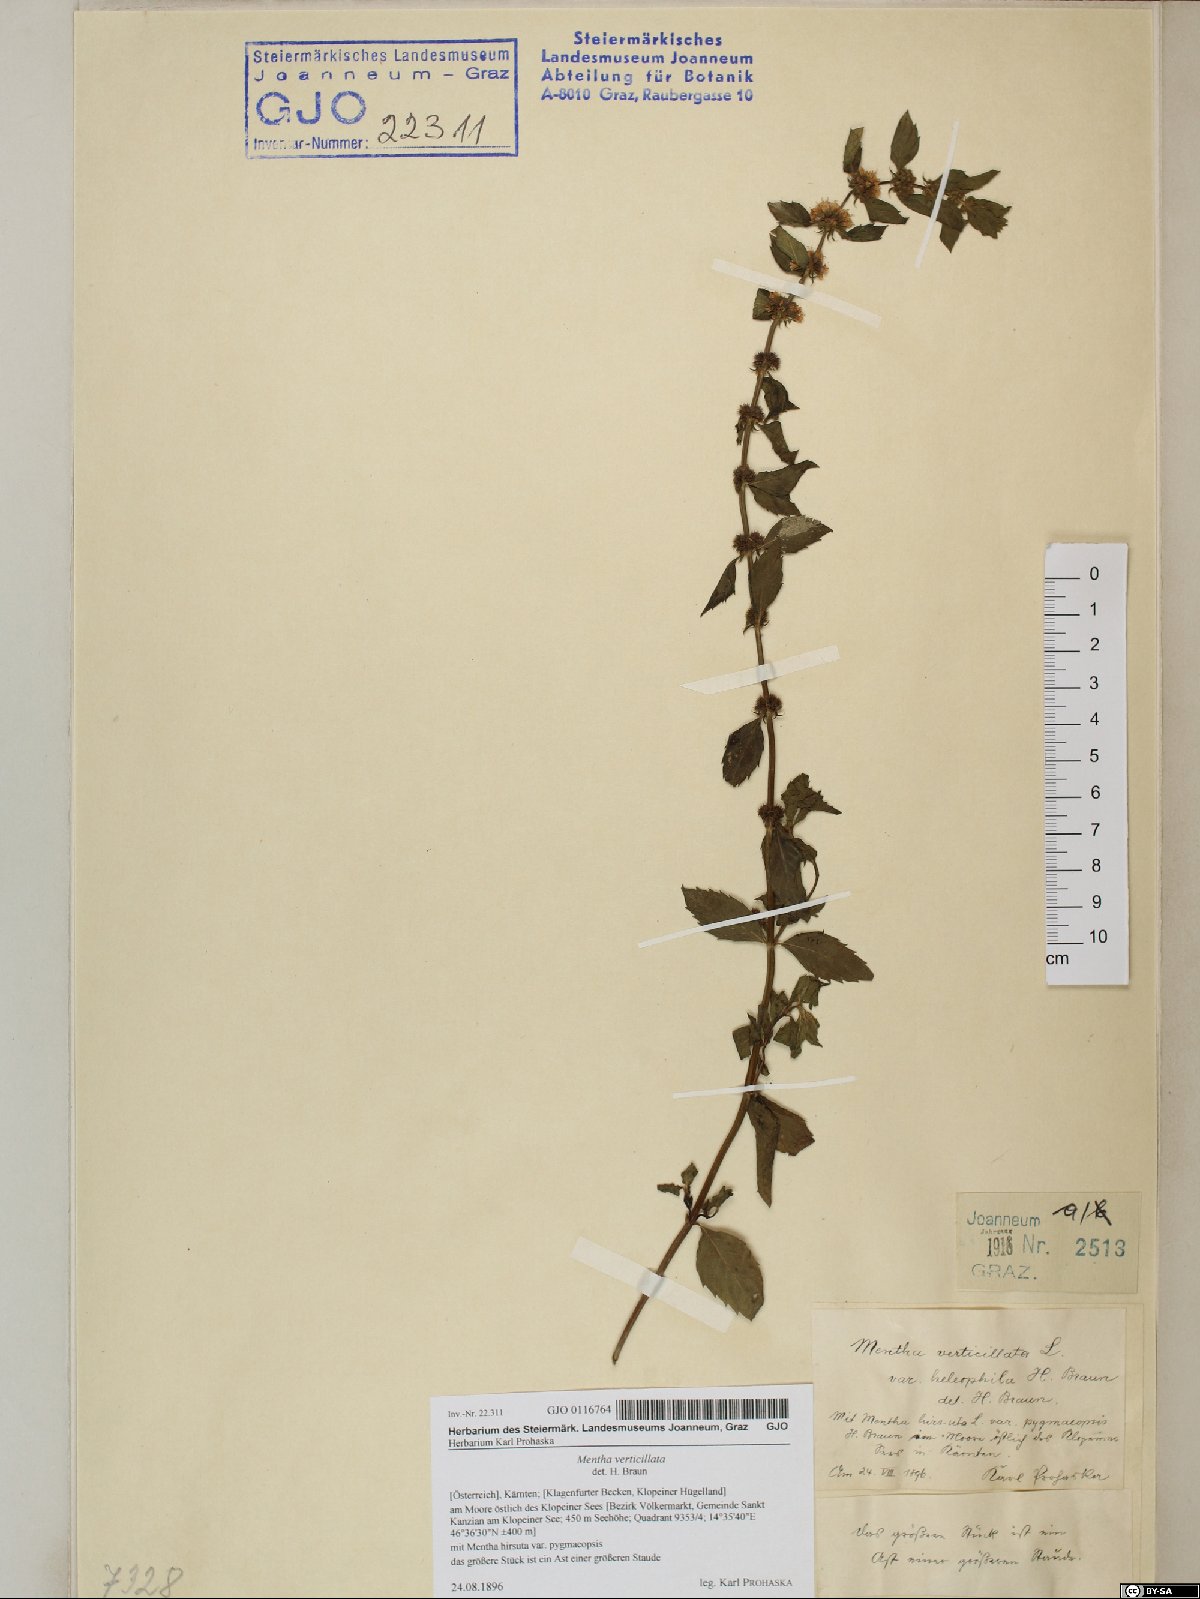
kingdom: Plantae
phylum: Tracheophyta
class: Magnoliopsida
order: Lamiales
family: Lamiaceae
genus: Mentha
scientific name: Mentha verticillata
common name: Mint
